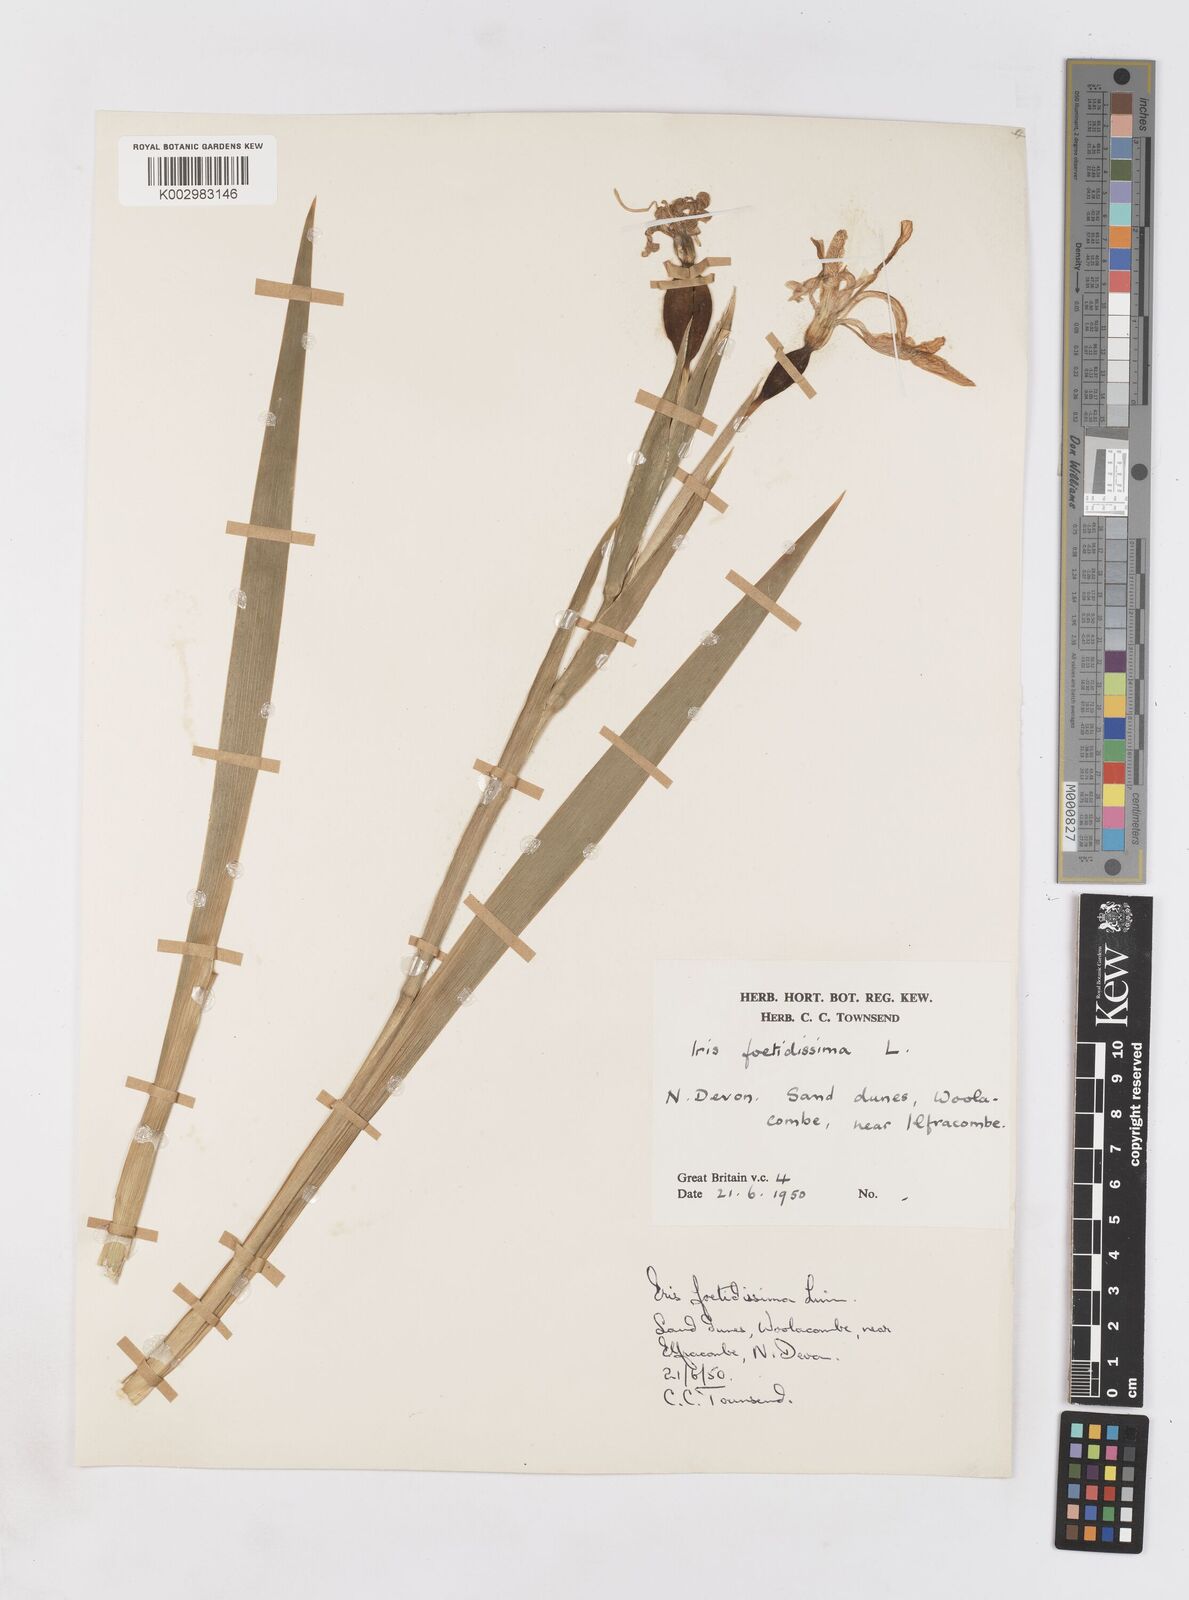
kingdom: Plantae
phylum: Tracheophyta
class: Liliopsida
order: Asparagales
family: Iridaceae
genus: Iris
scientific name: Iris foetidissima
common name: Stinking iris
